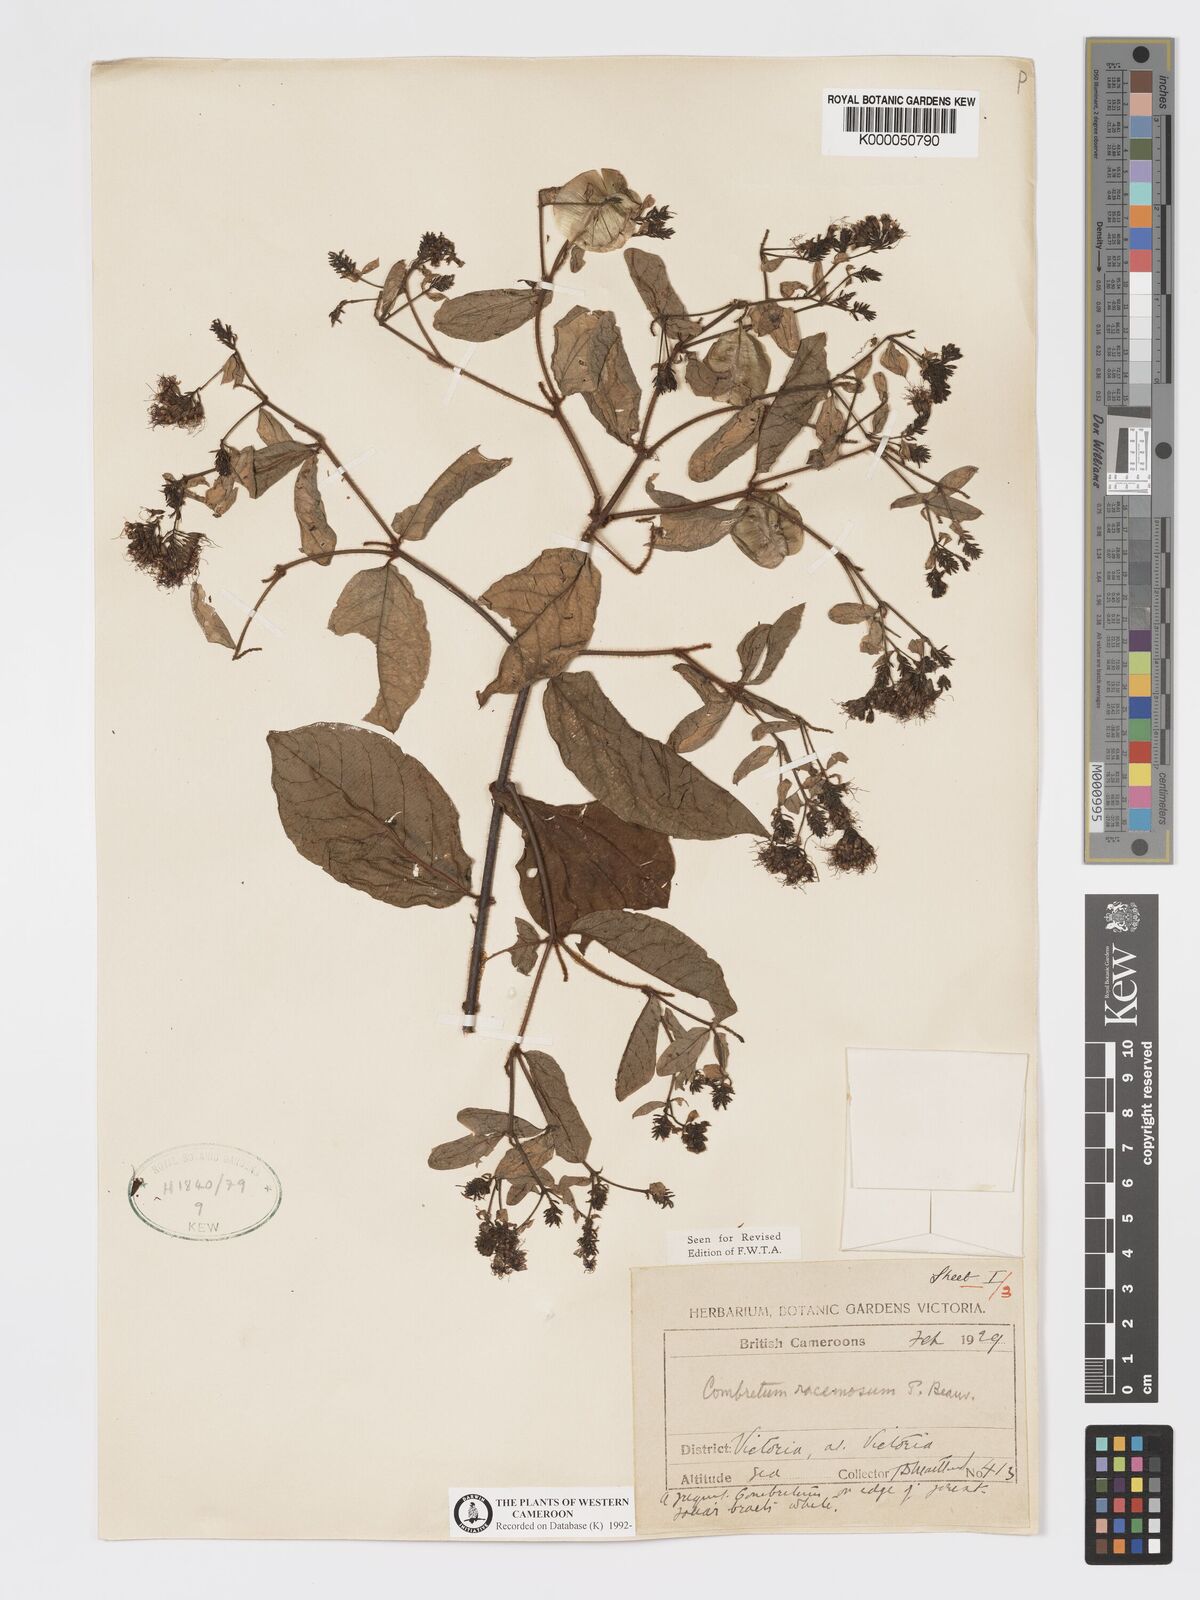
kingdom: Plantae
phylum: Tracheophyta
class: Magnoliopsida
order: Myrtales
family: Combretaceae
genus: Combretum
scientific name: Combretum racemosum
